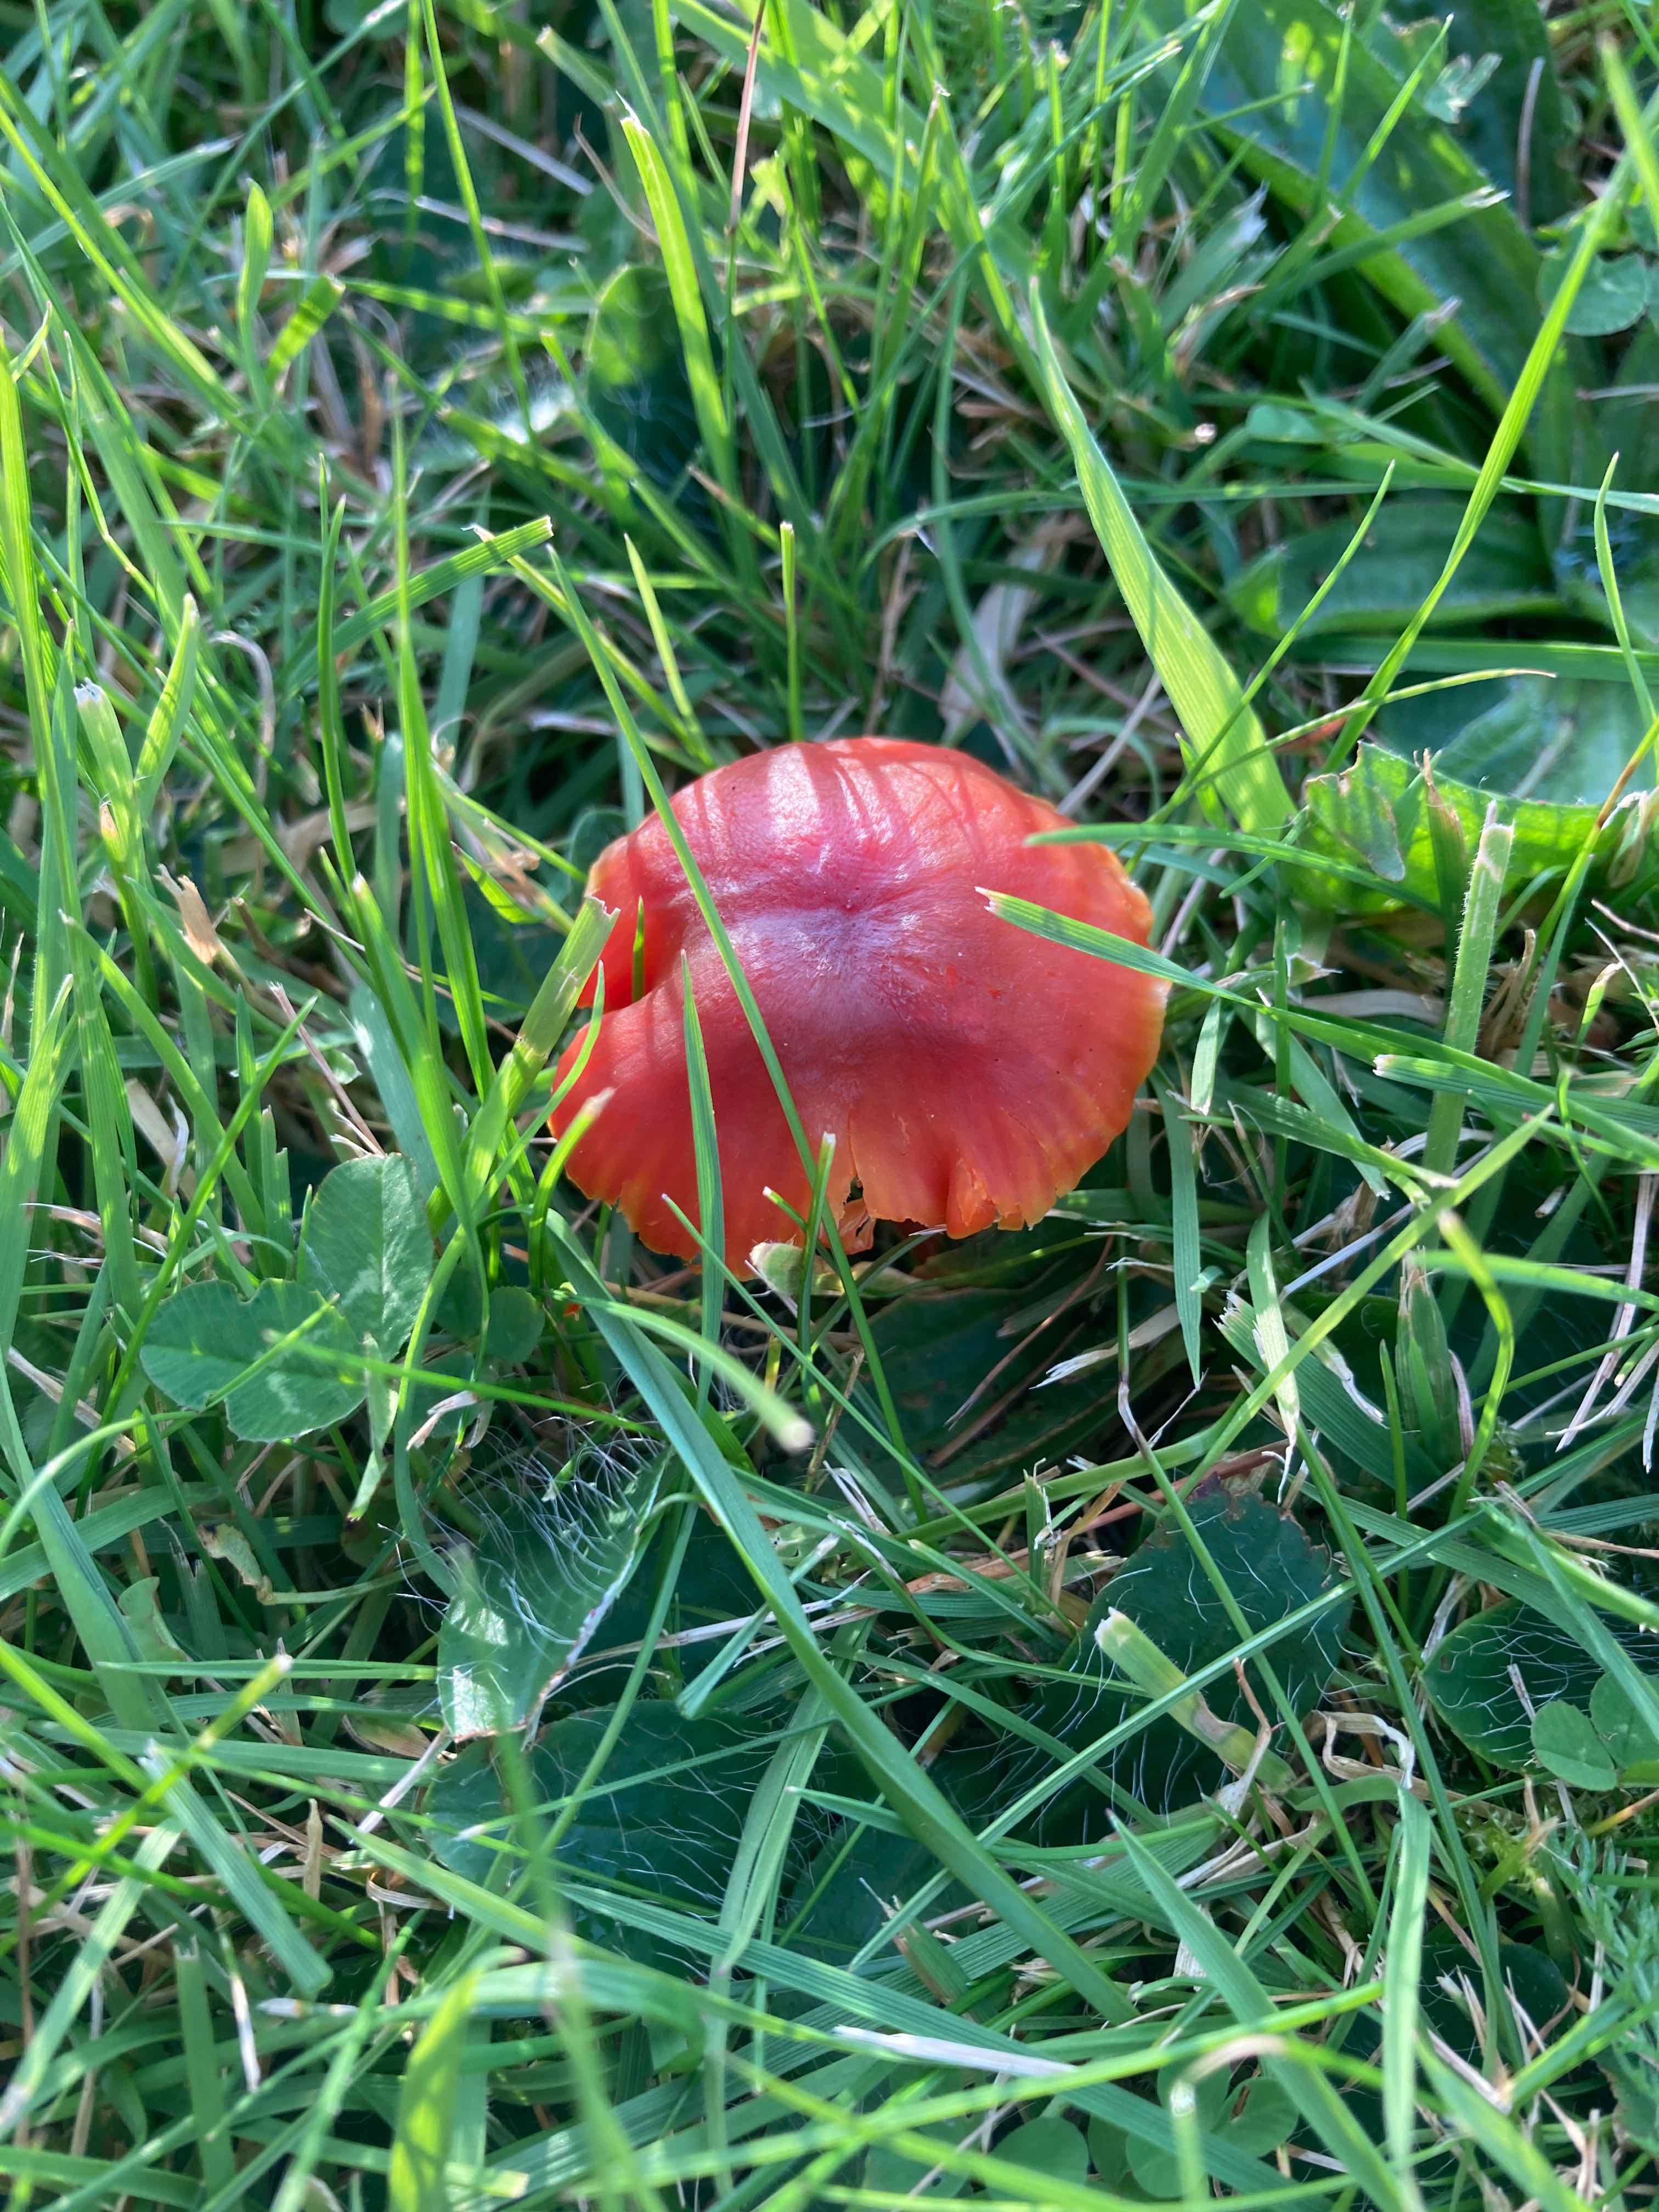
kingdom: Fungi
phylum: Basidiomycota
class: Agaricomycetes
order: Agaricales
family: Hygrophoraceae
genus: Hygrocybe
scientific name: Hygrocybe phaeococcinea
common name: sortdugget vokshat
